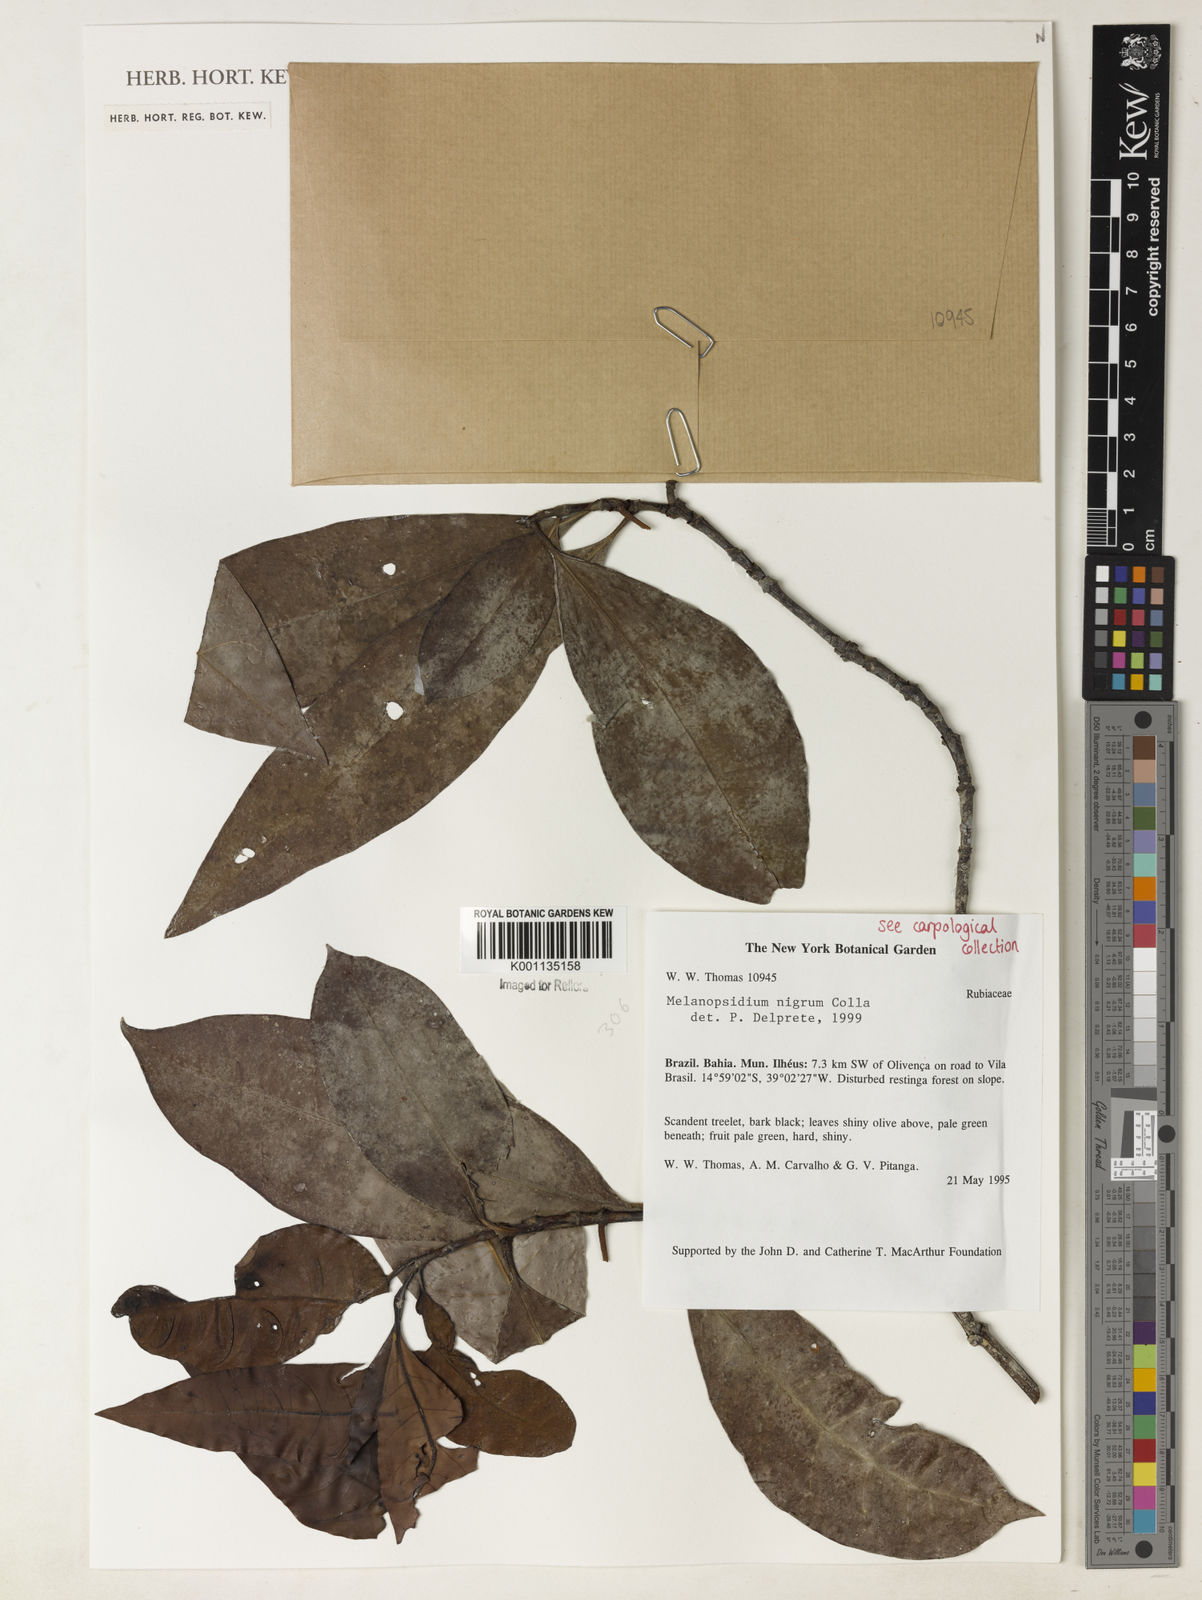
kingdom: Plantae
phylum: Tracheophyta
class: Magnoliopsida
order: Gentianales
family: Rubiaceae
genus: Melanopsidium
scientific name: Melanopsidium nigrum
